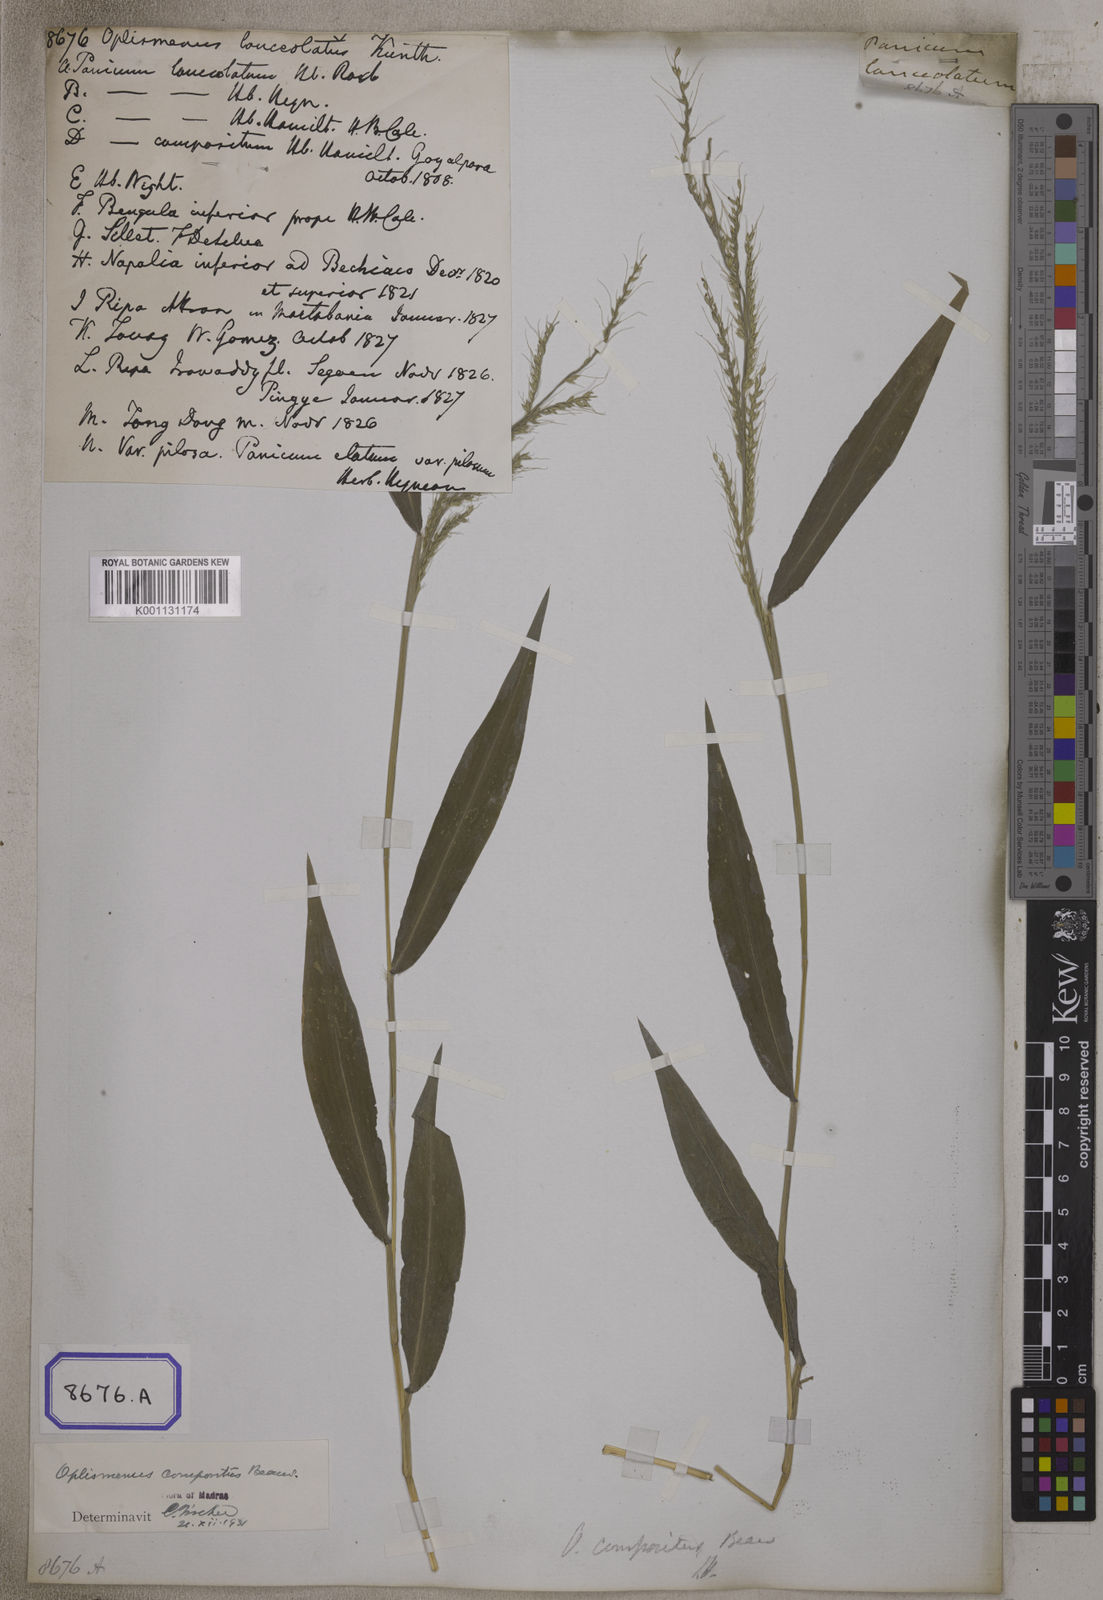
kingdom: Plantae
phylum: Tracheophyta
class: Liliopsida
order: Poales
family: Poaceae
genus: Oplismenus
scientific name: Oplismenus compositus
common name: Running mountain grass
